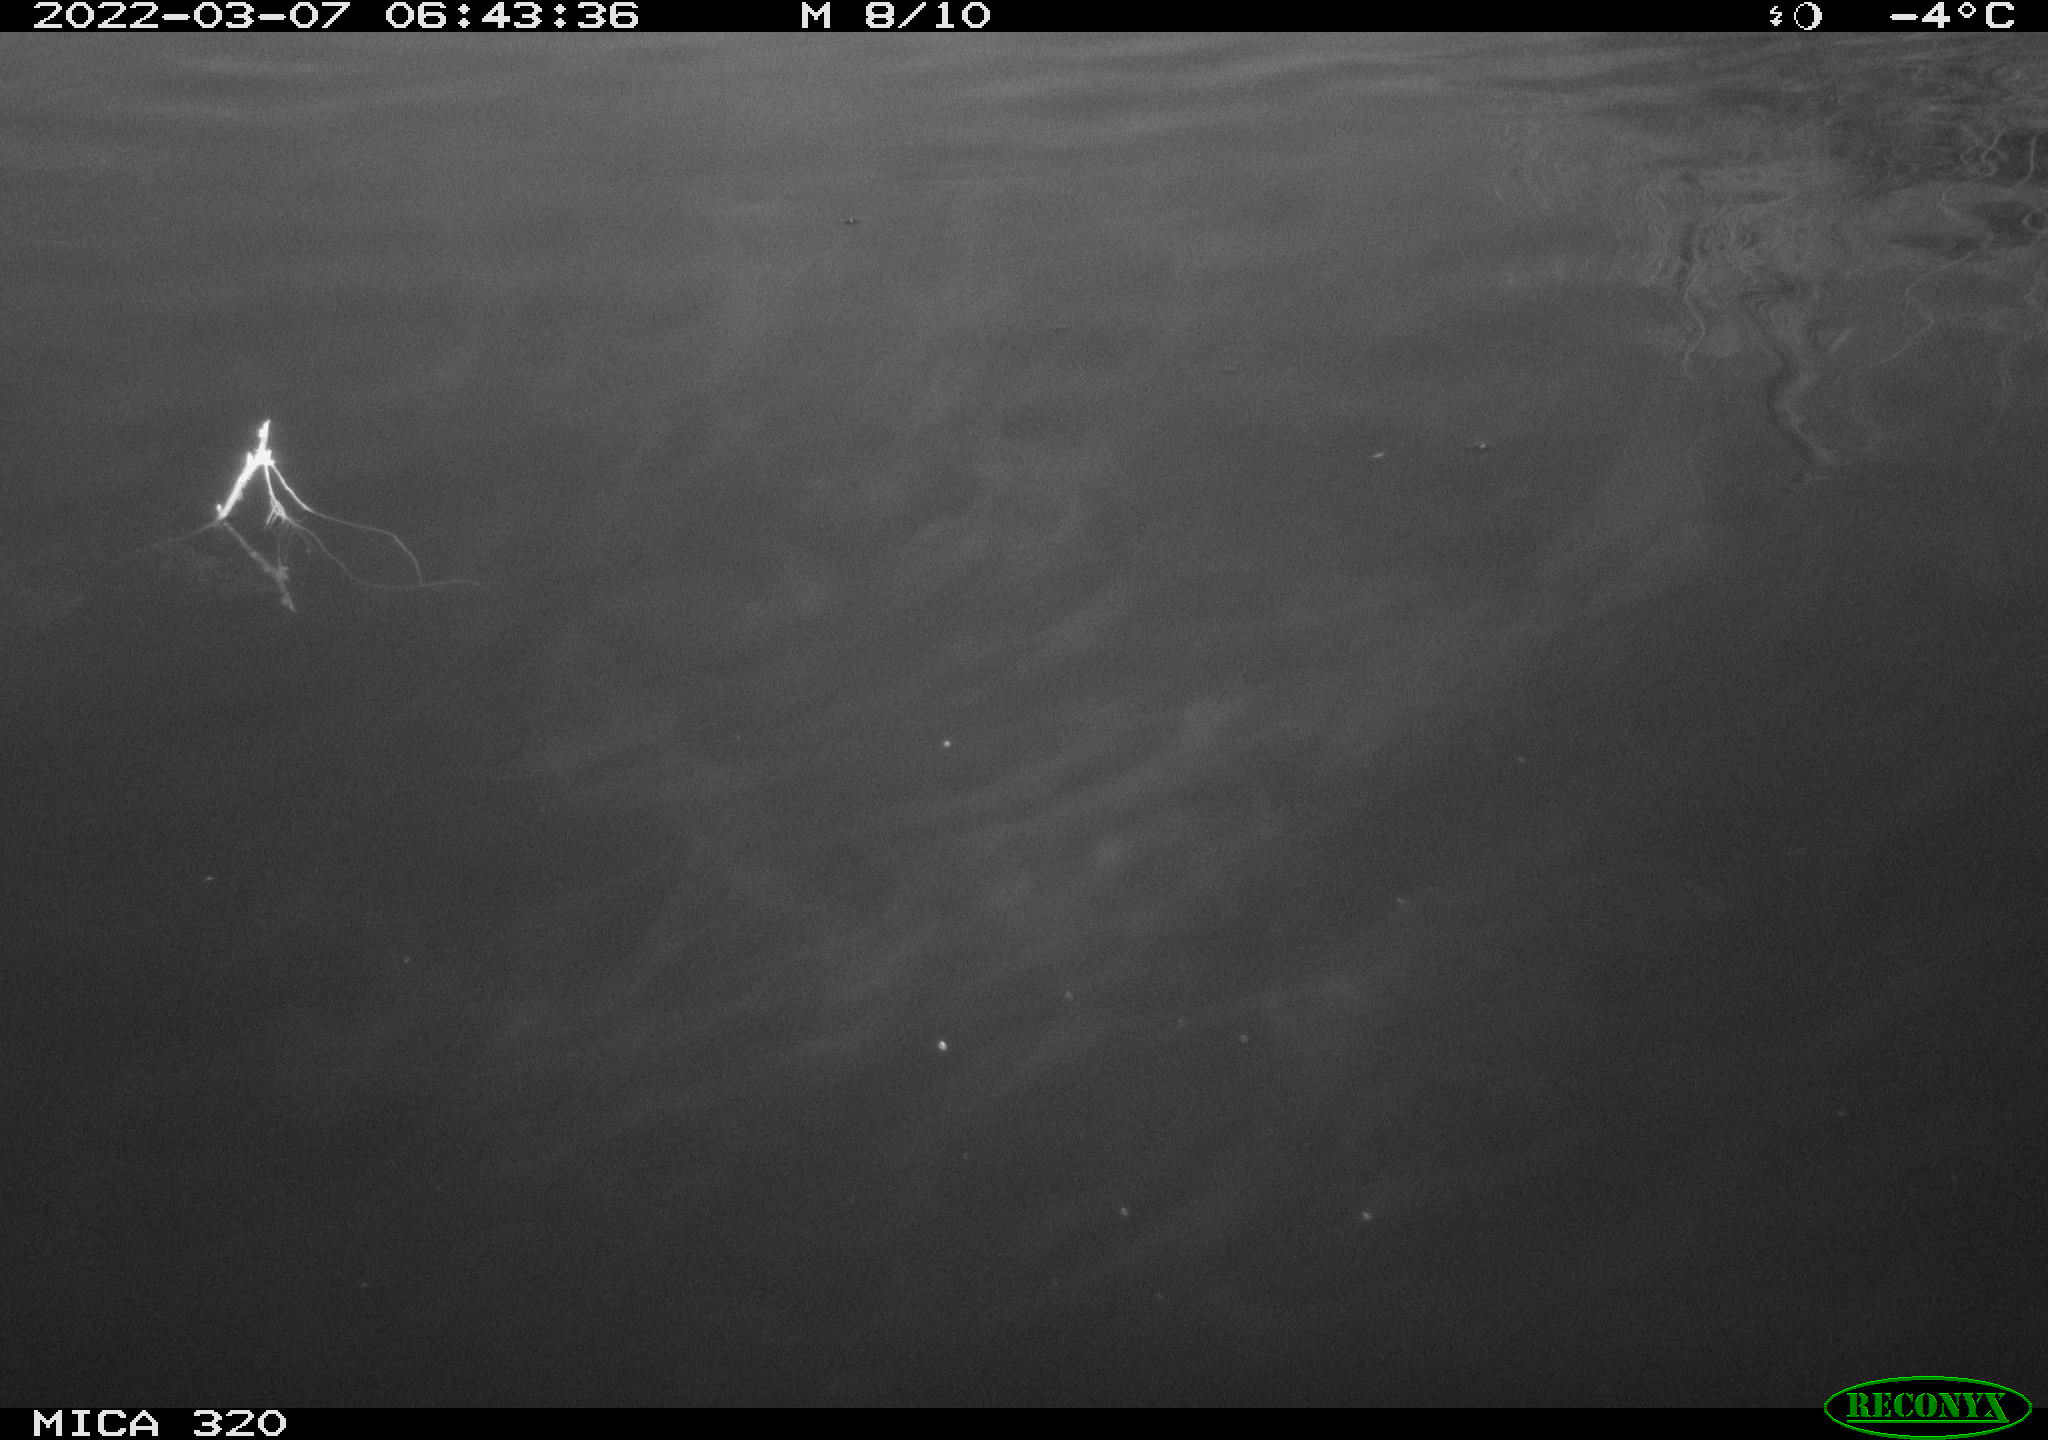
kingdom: Animalia
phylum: Chordata
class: Aves
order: Anseriformes
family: Anatidae
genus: Anas
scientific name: Anas platyrhynchos
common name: Mallard
